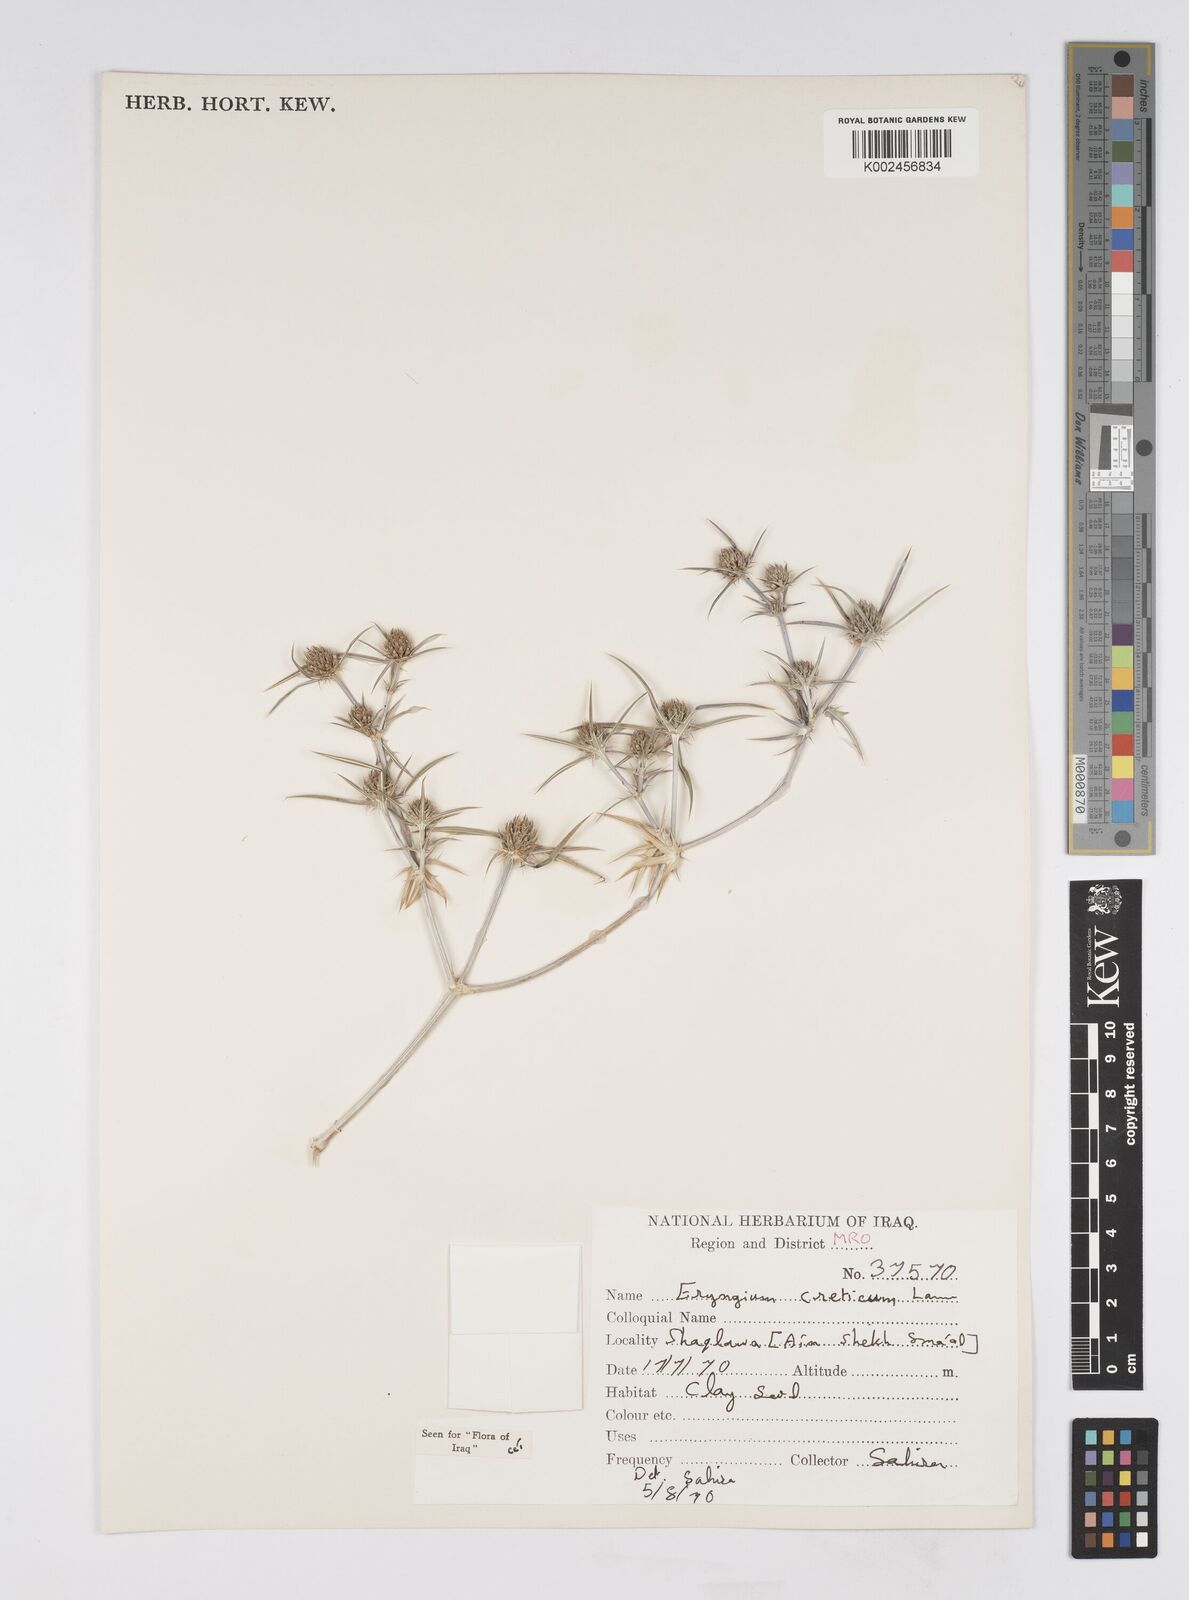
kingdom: Plantae
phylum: Tracheophyta
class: Magnoliopsida
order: Apiales
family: Apiaceae
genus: Eryngium
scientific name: Eryngium creticum
